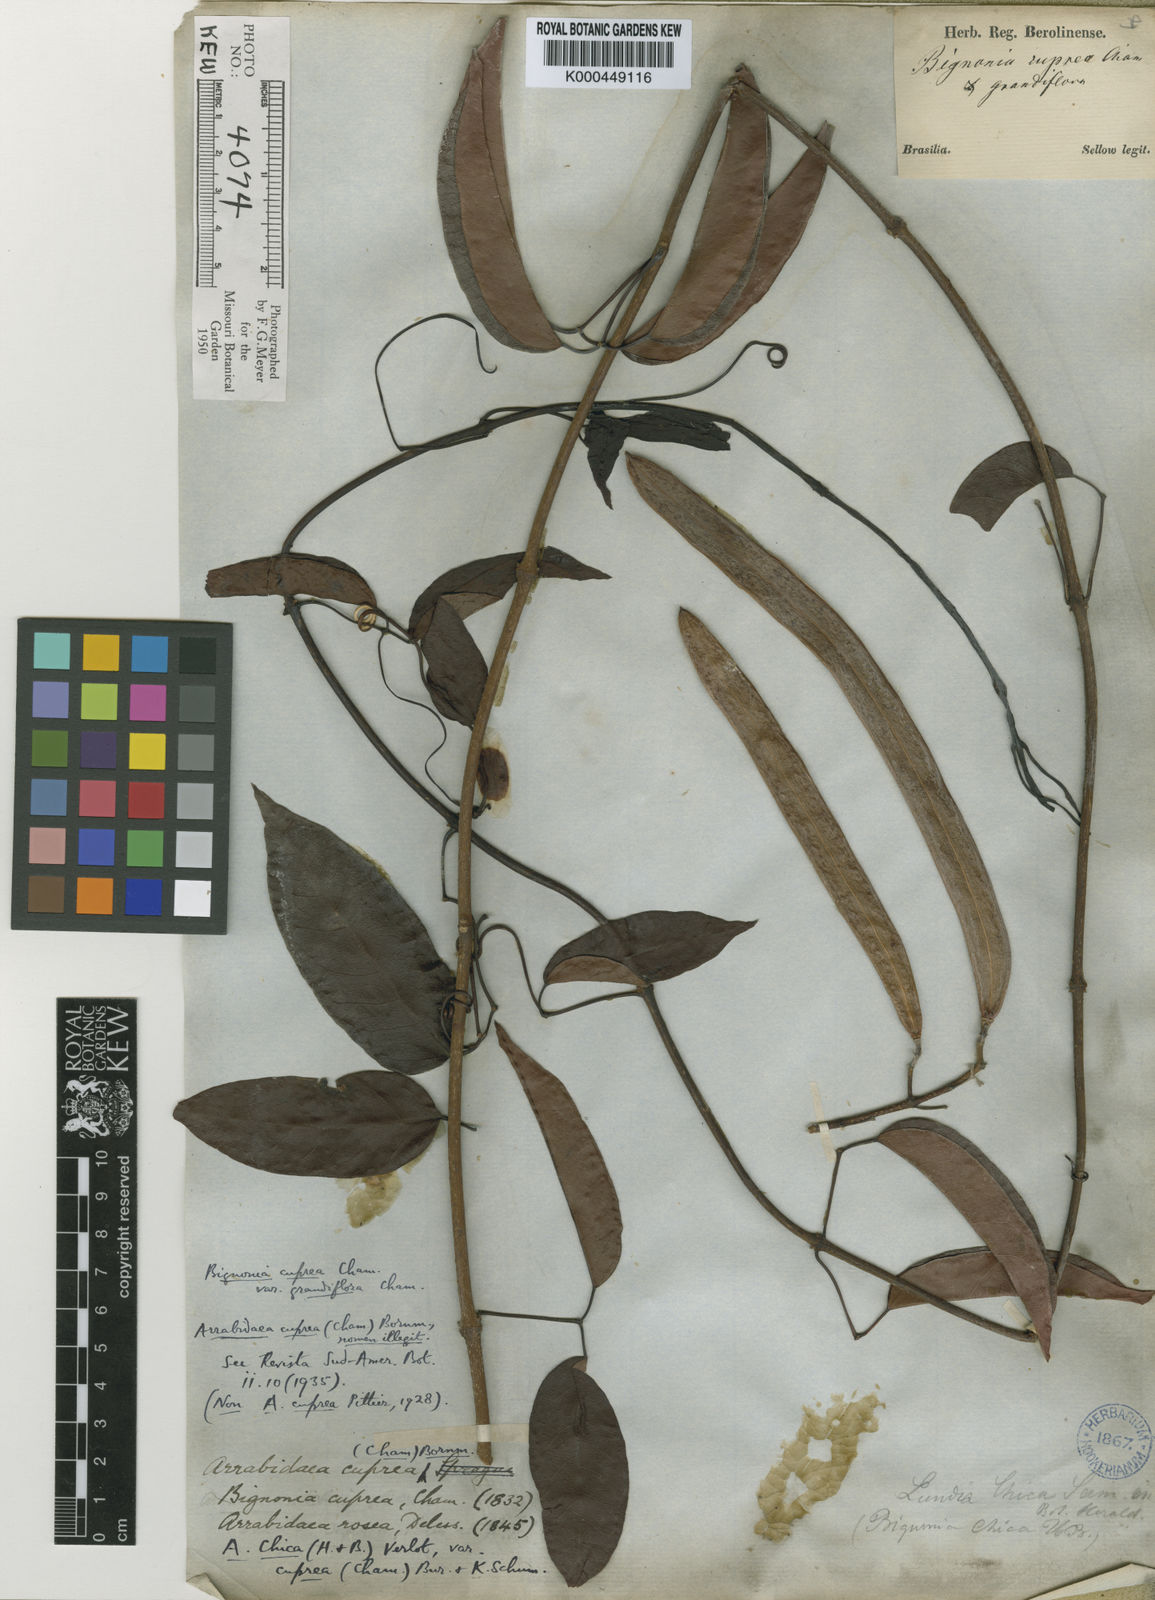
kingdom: Plantae
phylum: Tracheophyta
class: Magnoliopsida
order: Lamiales
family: Bignoniaceae
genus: Fridericia
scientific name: Fridericia chica
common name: Cricketvine
